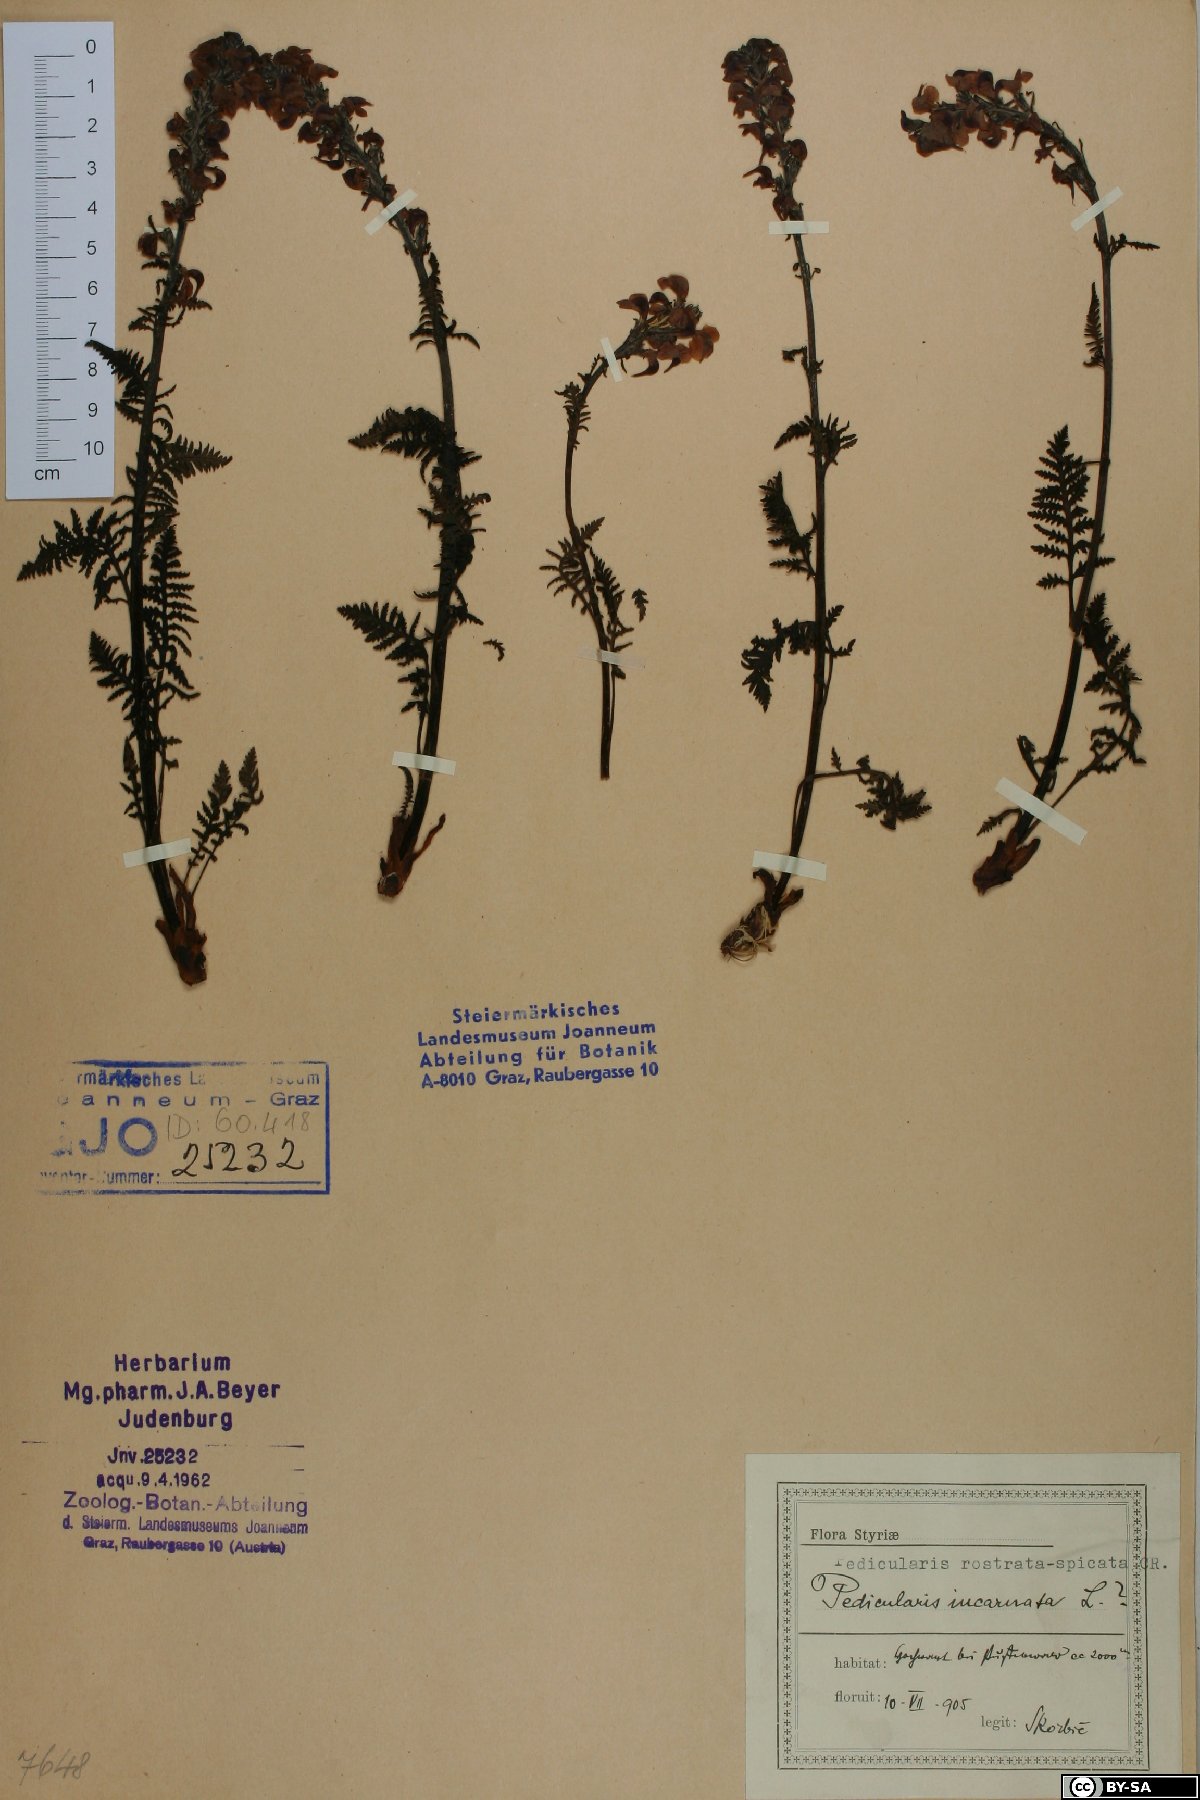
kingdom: Plantae
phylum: Tracheophyta
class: Magnoliopsida
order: Lamiales
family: Orobanchaceae
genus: Pedicularis
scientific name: Pedicularis rostratospicata
